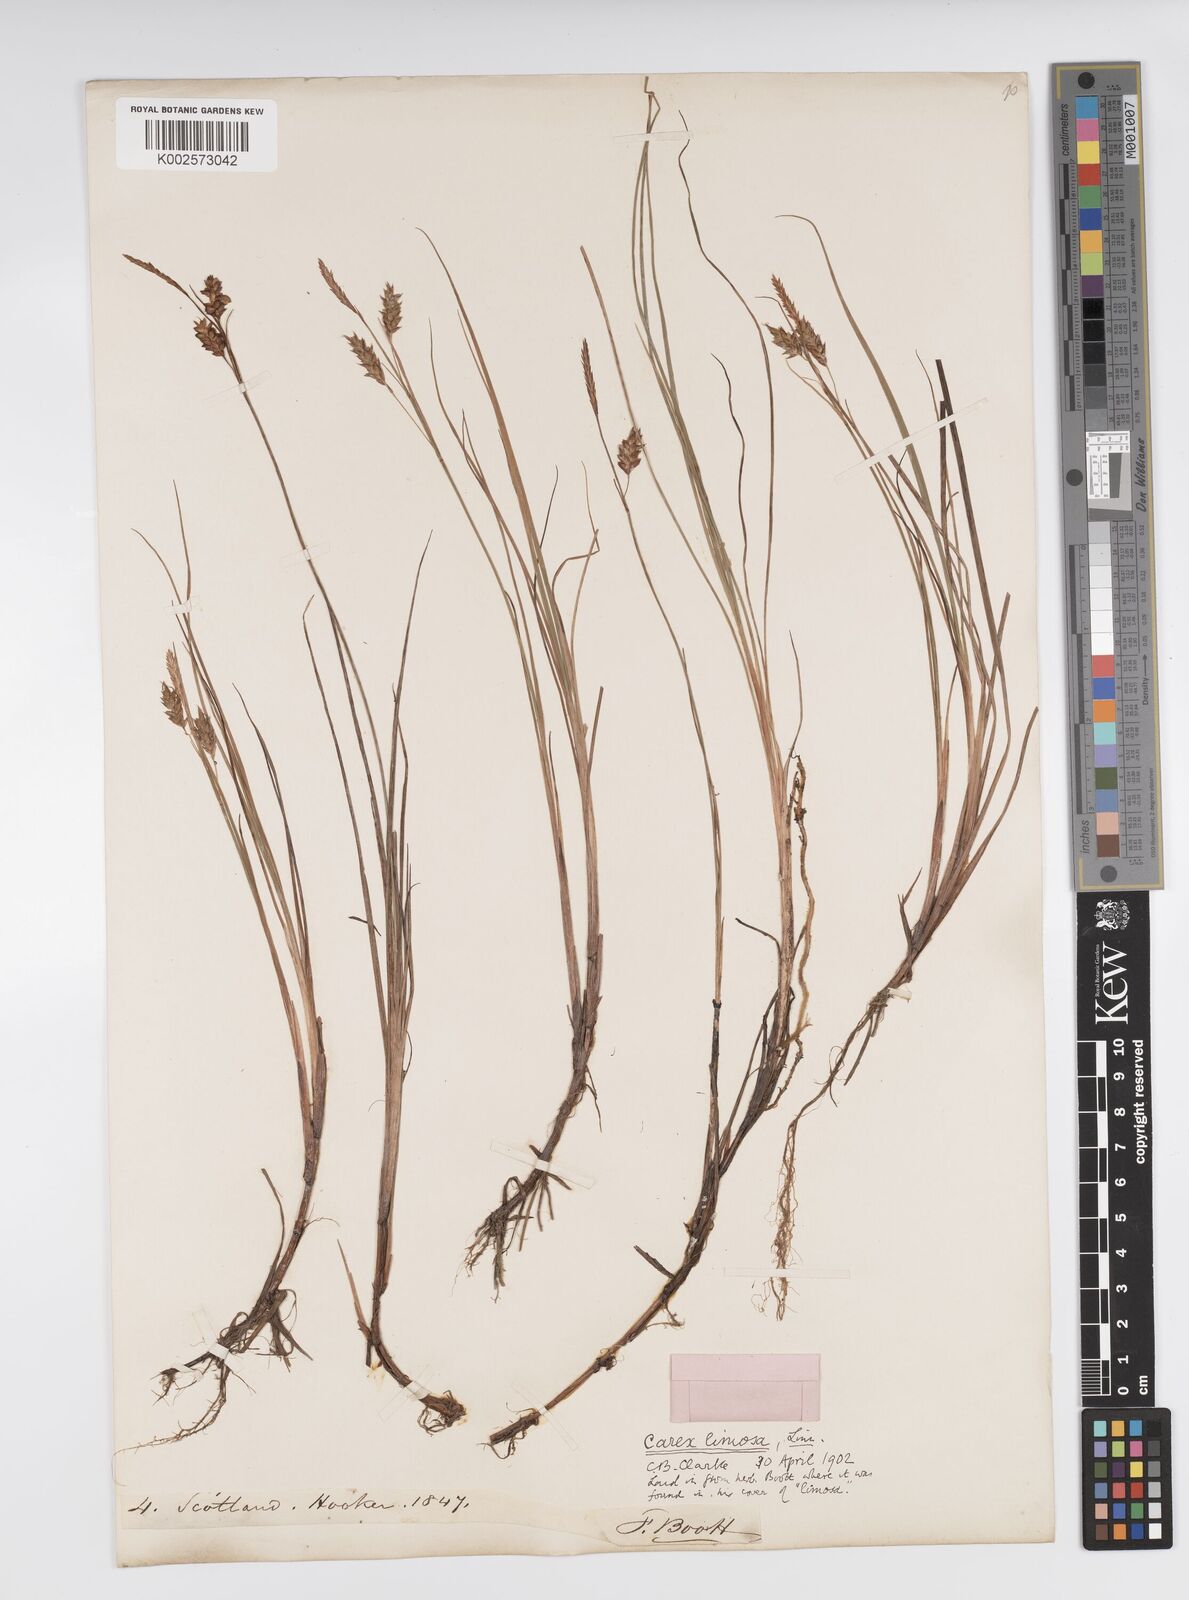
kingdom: Plantae
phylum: Tracheophyta
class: Liliopsida
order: Poales
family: Cyperaceae
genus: Carex
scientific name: Carex limosa
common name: Bog sedge
